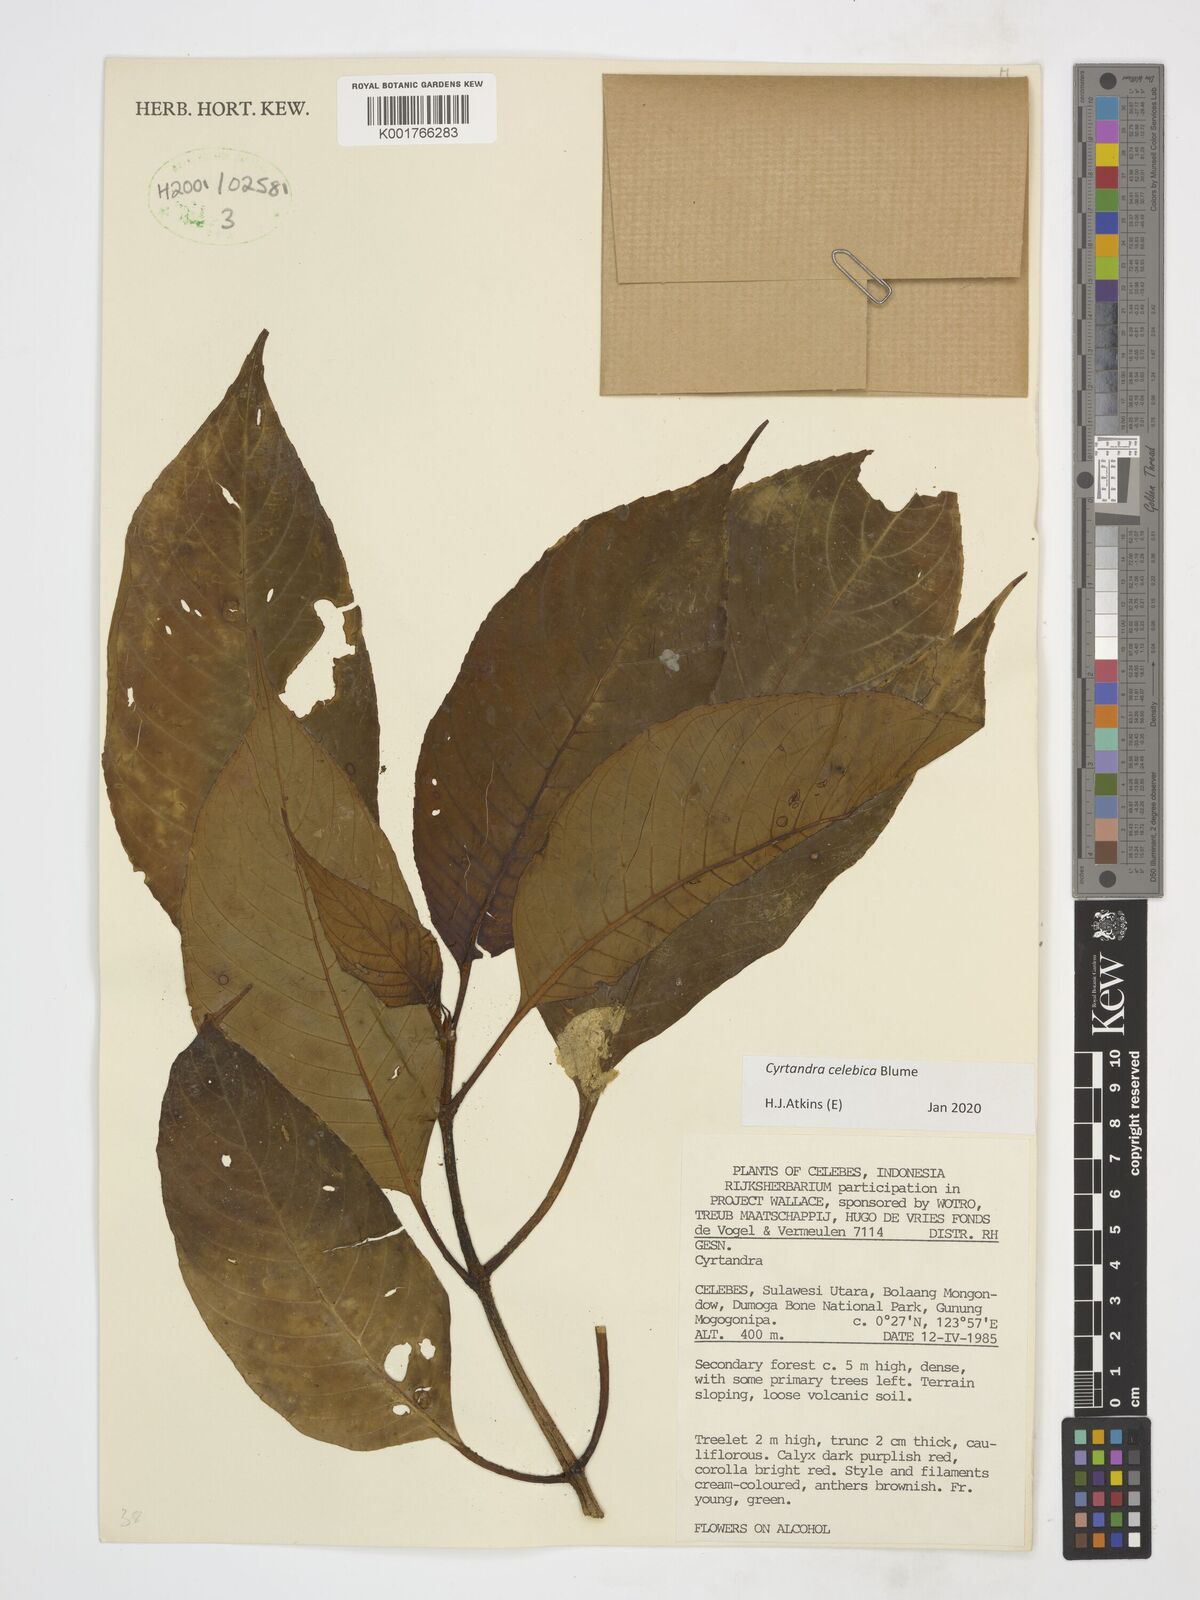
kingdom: Plantae
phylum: Tracheophyta
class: Magnoliopsida
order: Lamiales
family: Gesneriaceae
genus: Cyrtandra
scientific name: Cyrtandra coccinea
